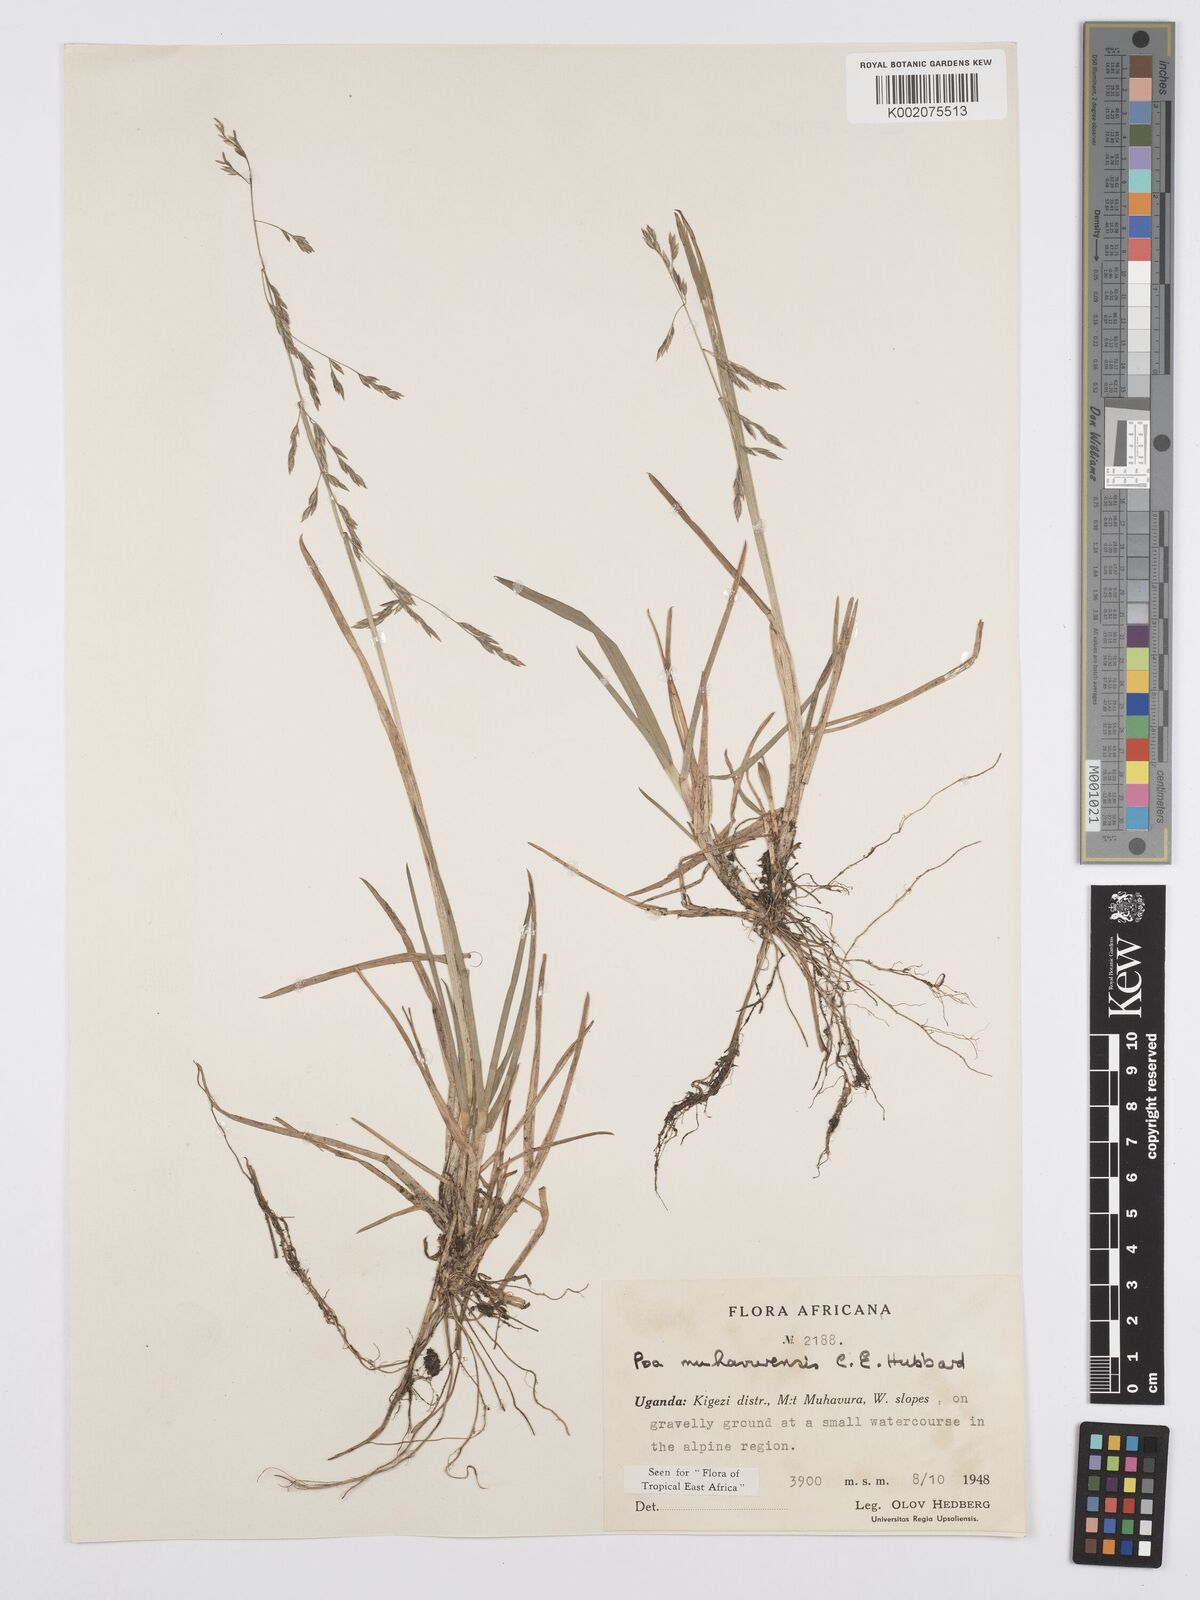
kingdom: Plantae
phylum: Tracheophyta
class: Liliopsida
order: Poales
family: Poaceae
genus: Poa
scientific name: Poa schimperiana
